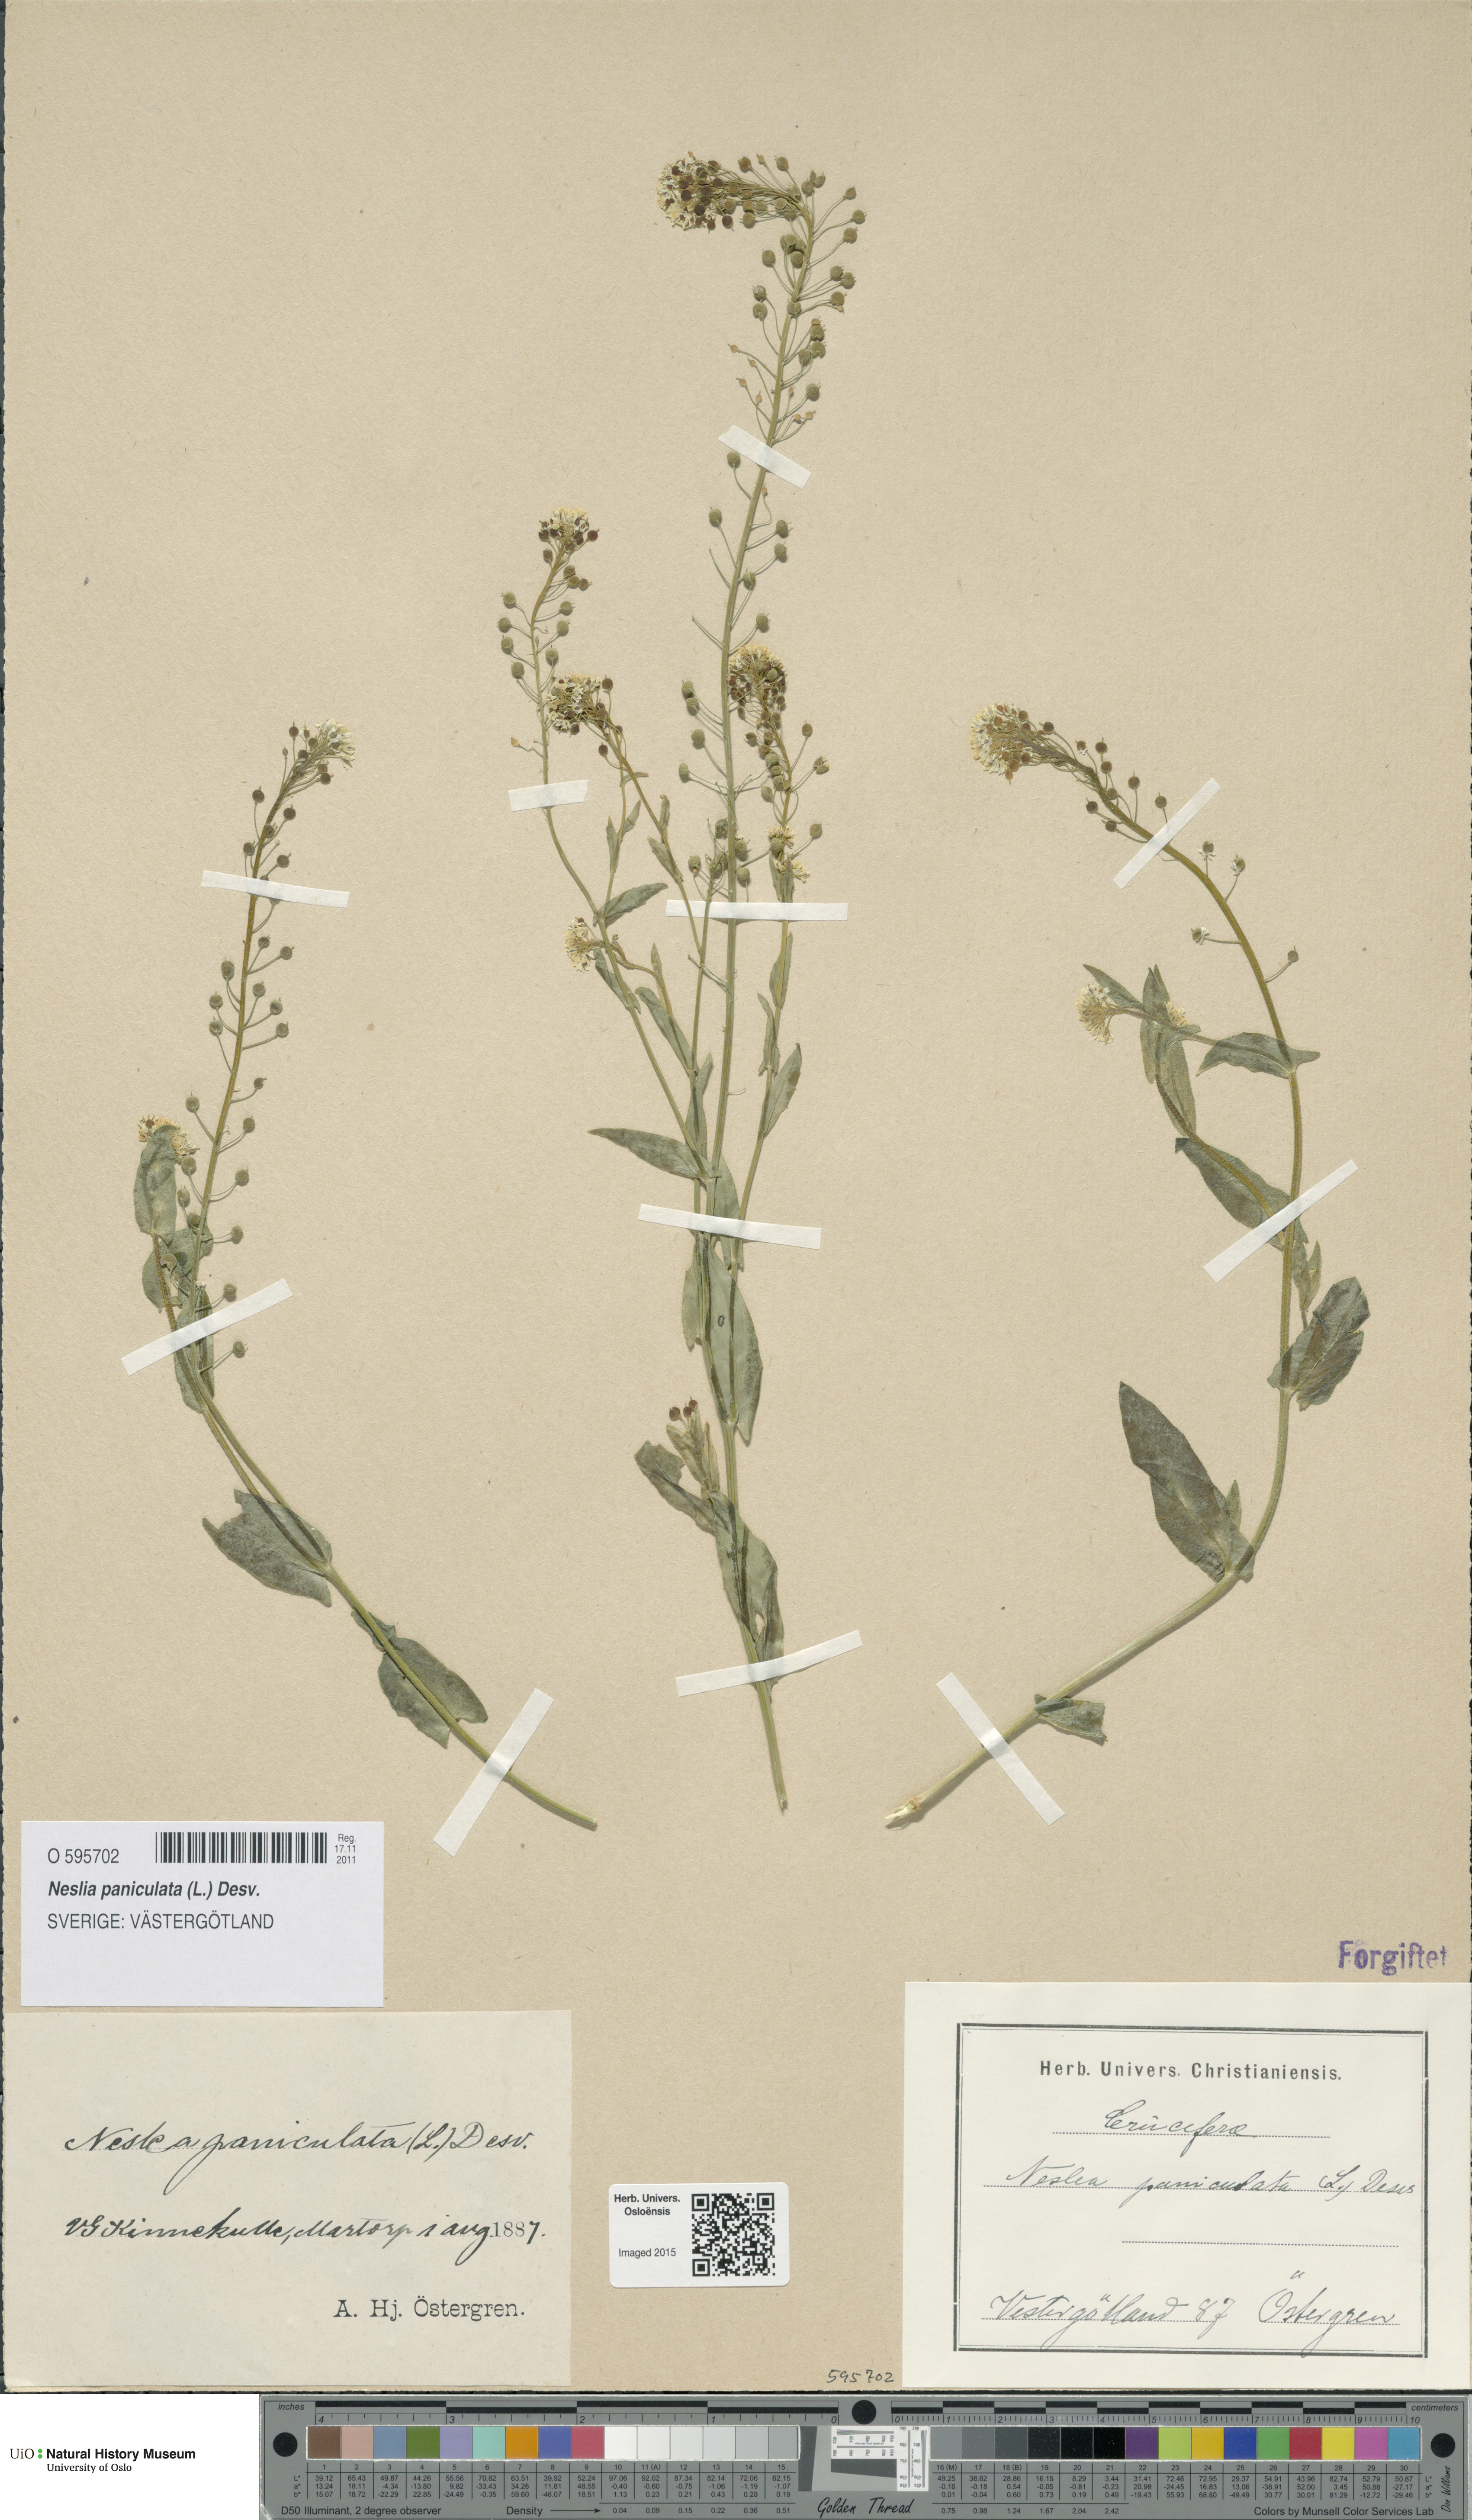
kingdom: Plantae
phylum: Tracheophyta
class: Magnoliopsida
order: Brassicales
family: Brassicaceae
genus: Neslia
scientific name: Neslia paniculata
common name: Ball mustard
